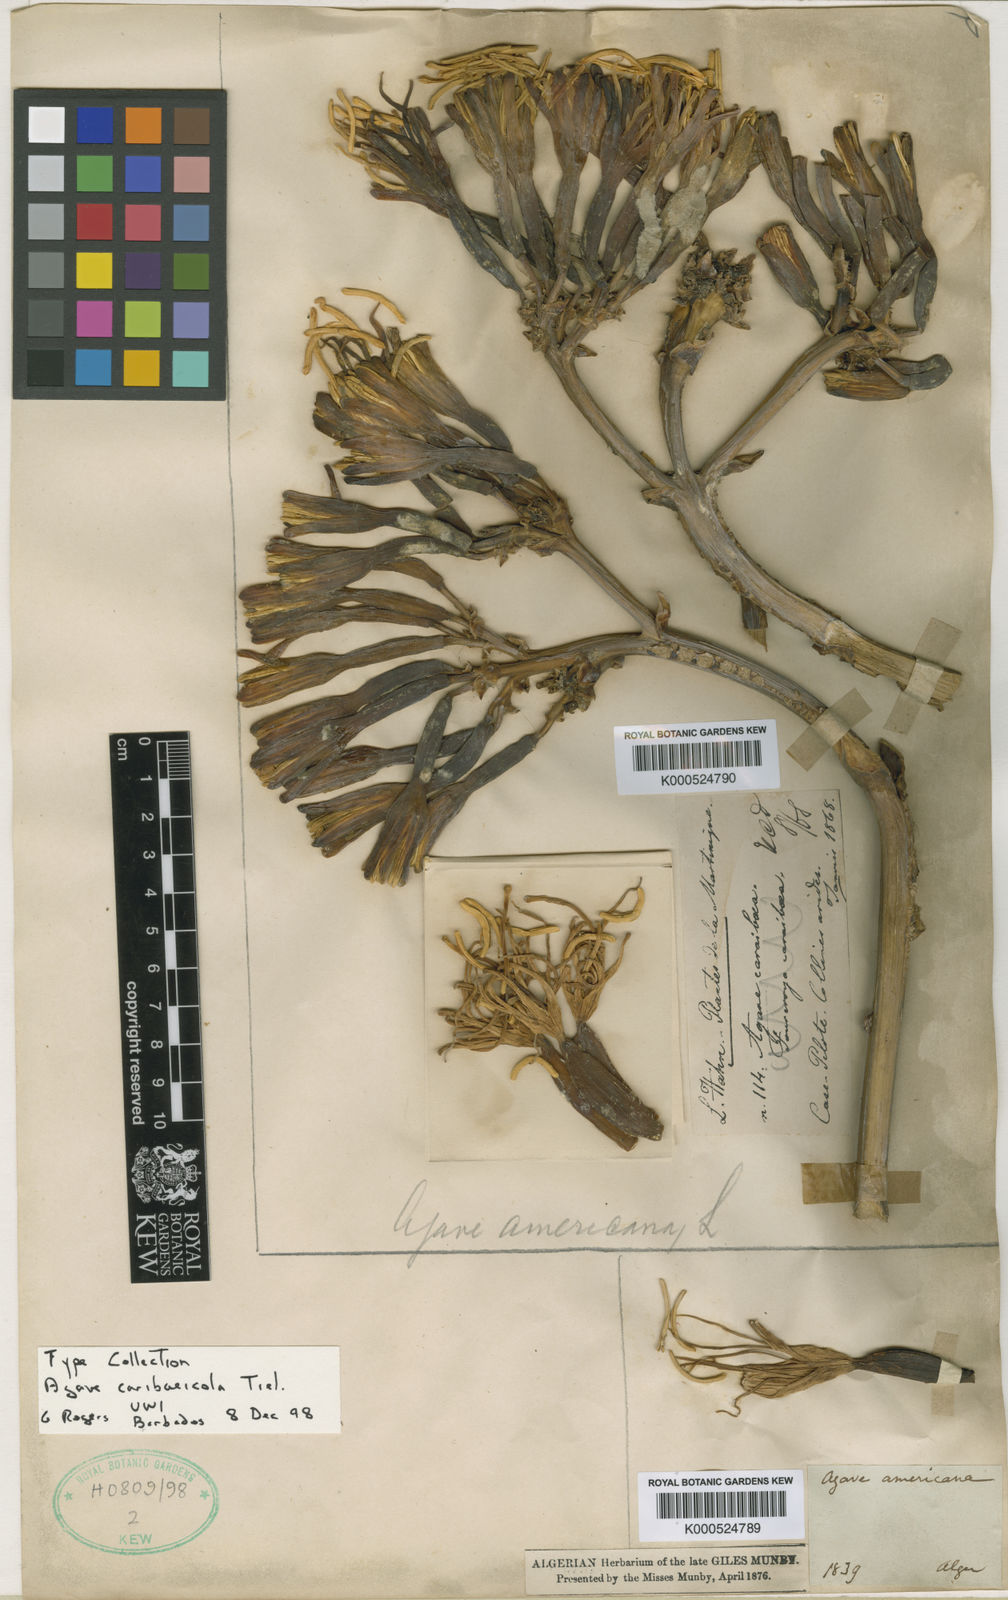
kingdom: Plantae
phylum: Tracheophyta
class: Liliopsida
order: Asparagales
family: Asparagaceae
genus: Agave
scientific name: Agave caribaeicola
